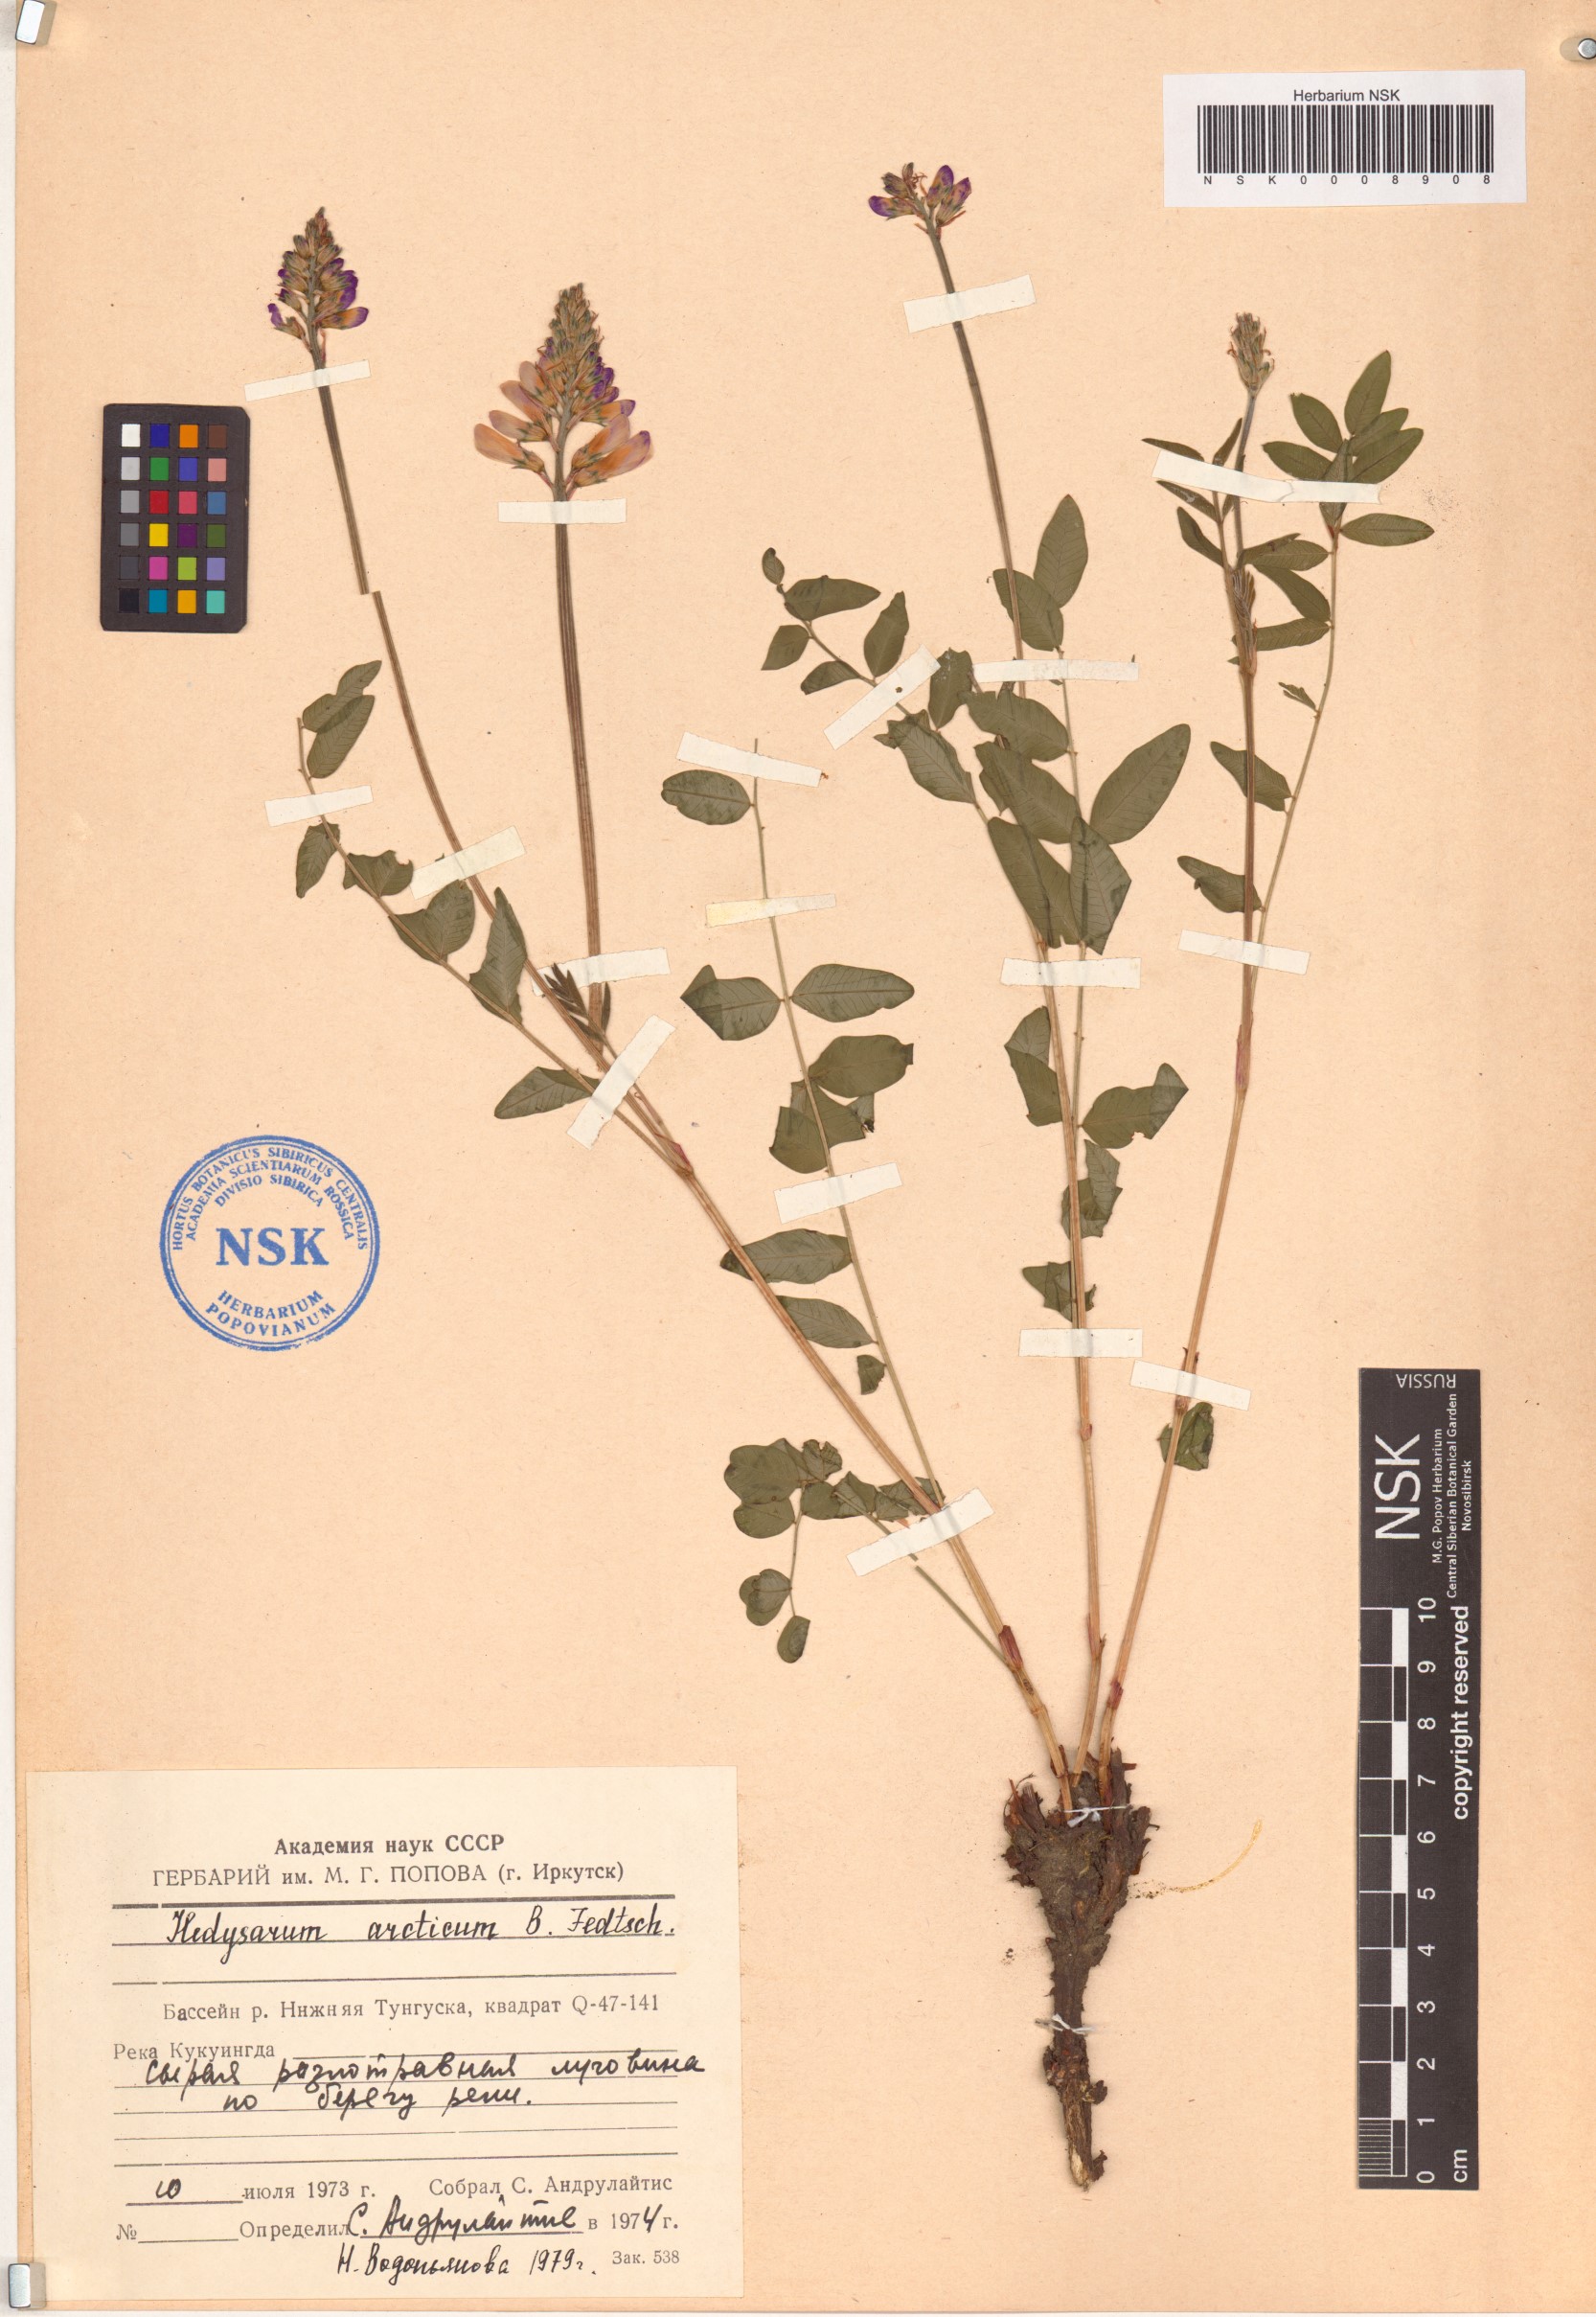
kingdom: Plantae
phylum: Tracheophyta
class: Magnoliopsida
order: Fabales
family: Fabaceae
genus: Hedysarum
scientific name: Hedysarum hedysaroides
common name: Alpine french-honeysuckle
